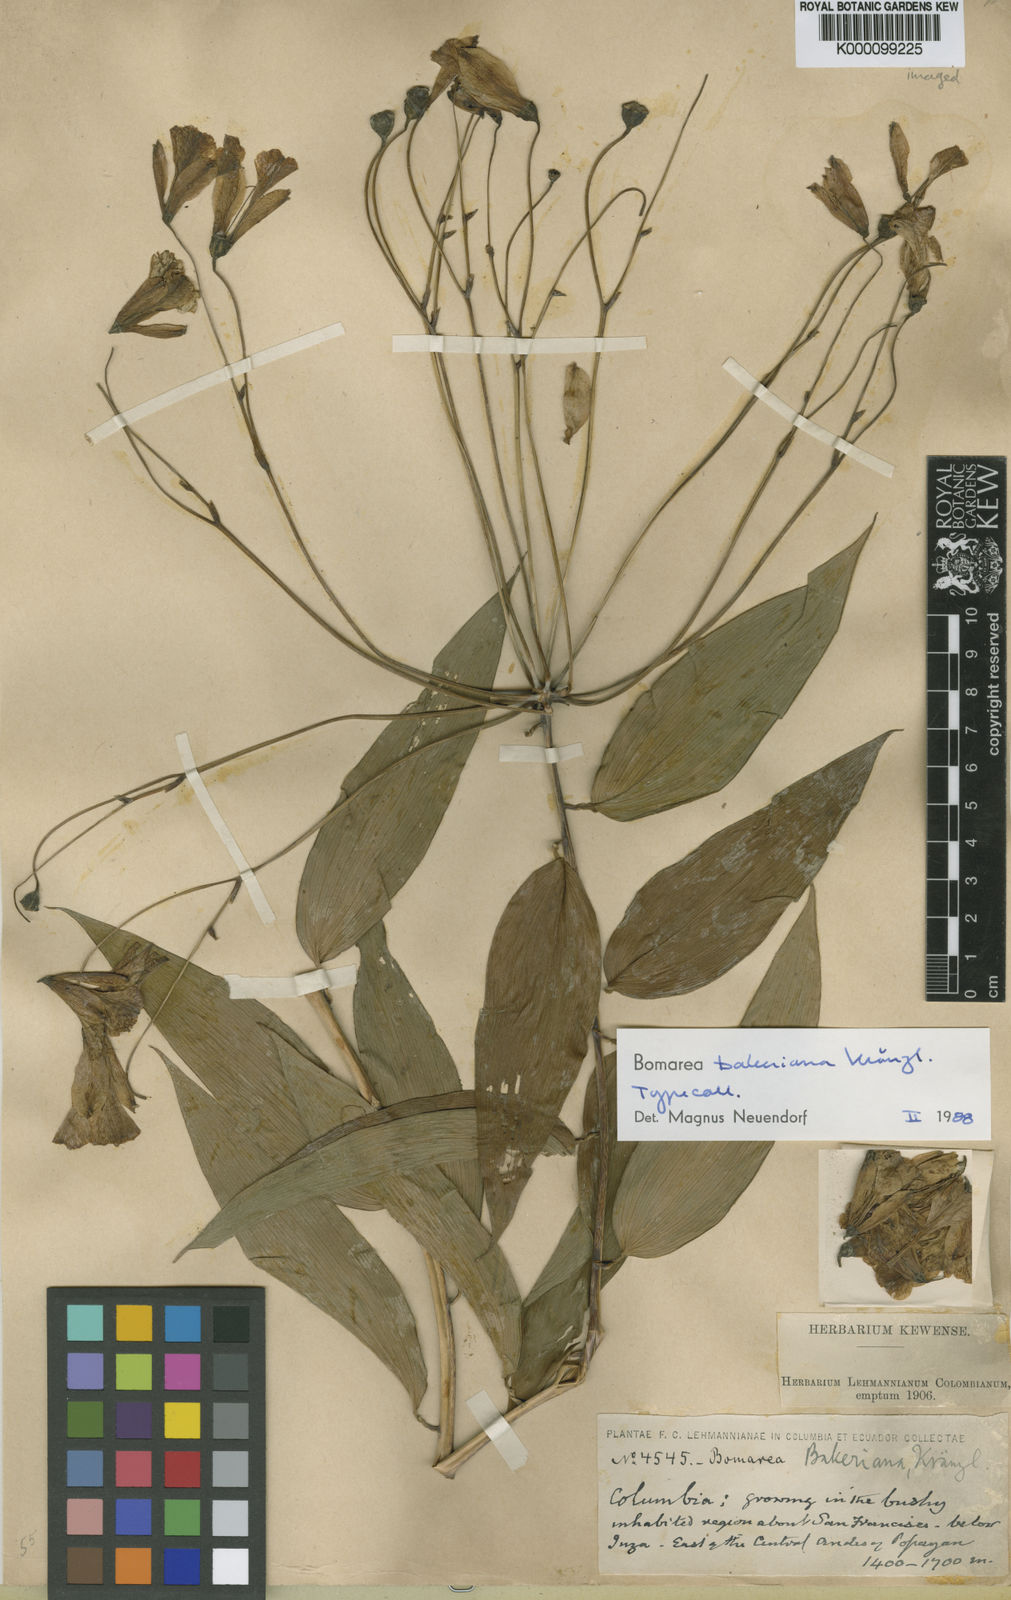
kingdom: Plantae
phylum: Tracheophyta
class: Liliopsida
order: Liliales
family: Alstroemeriaceae
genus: Bomarea
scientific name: Bomarea edulis
